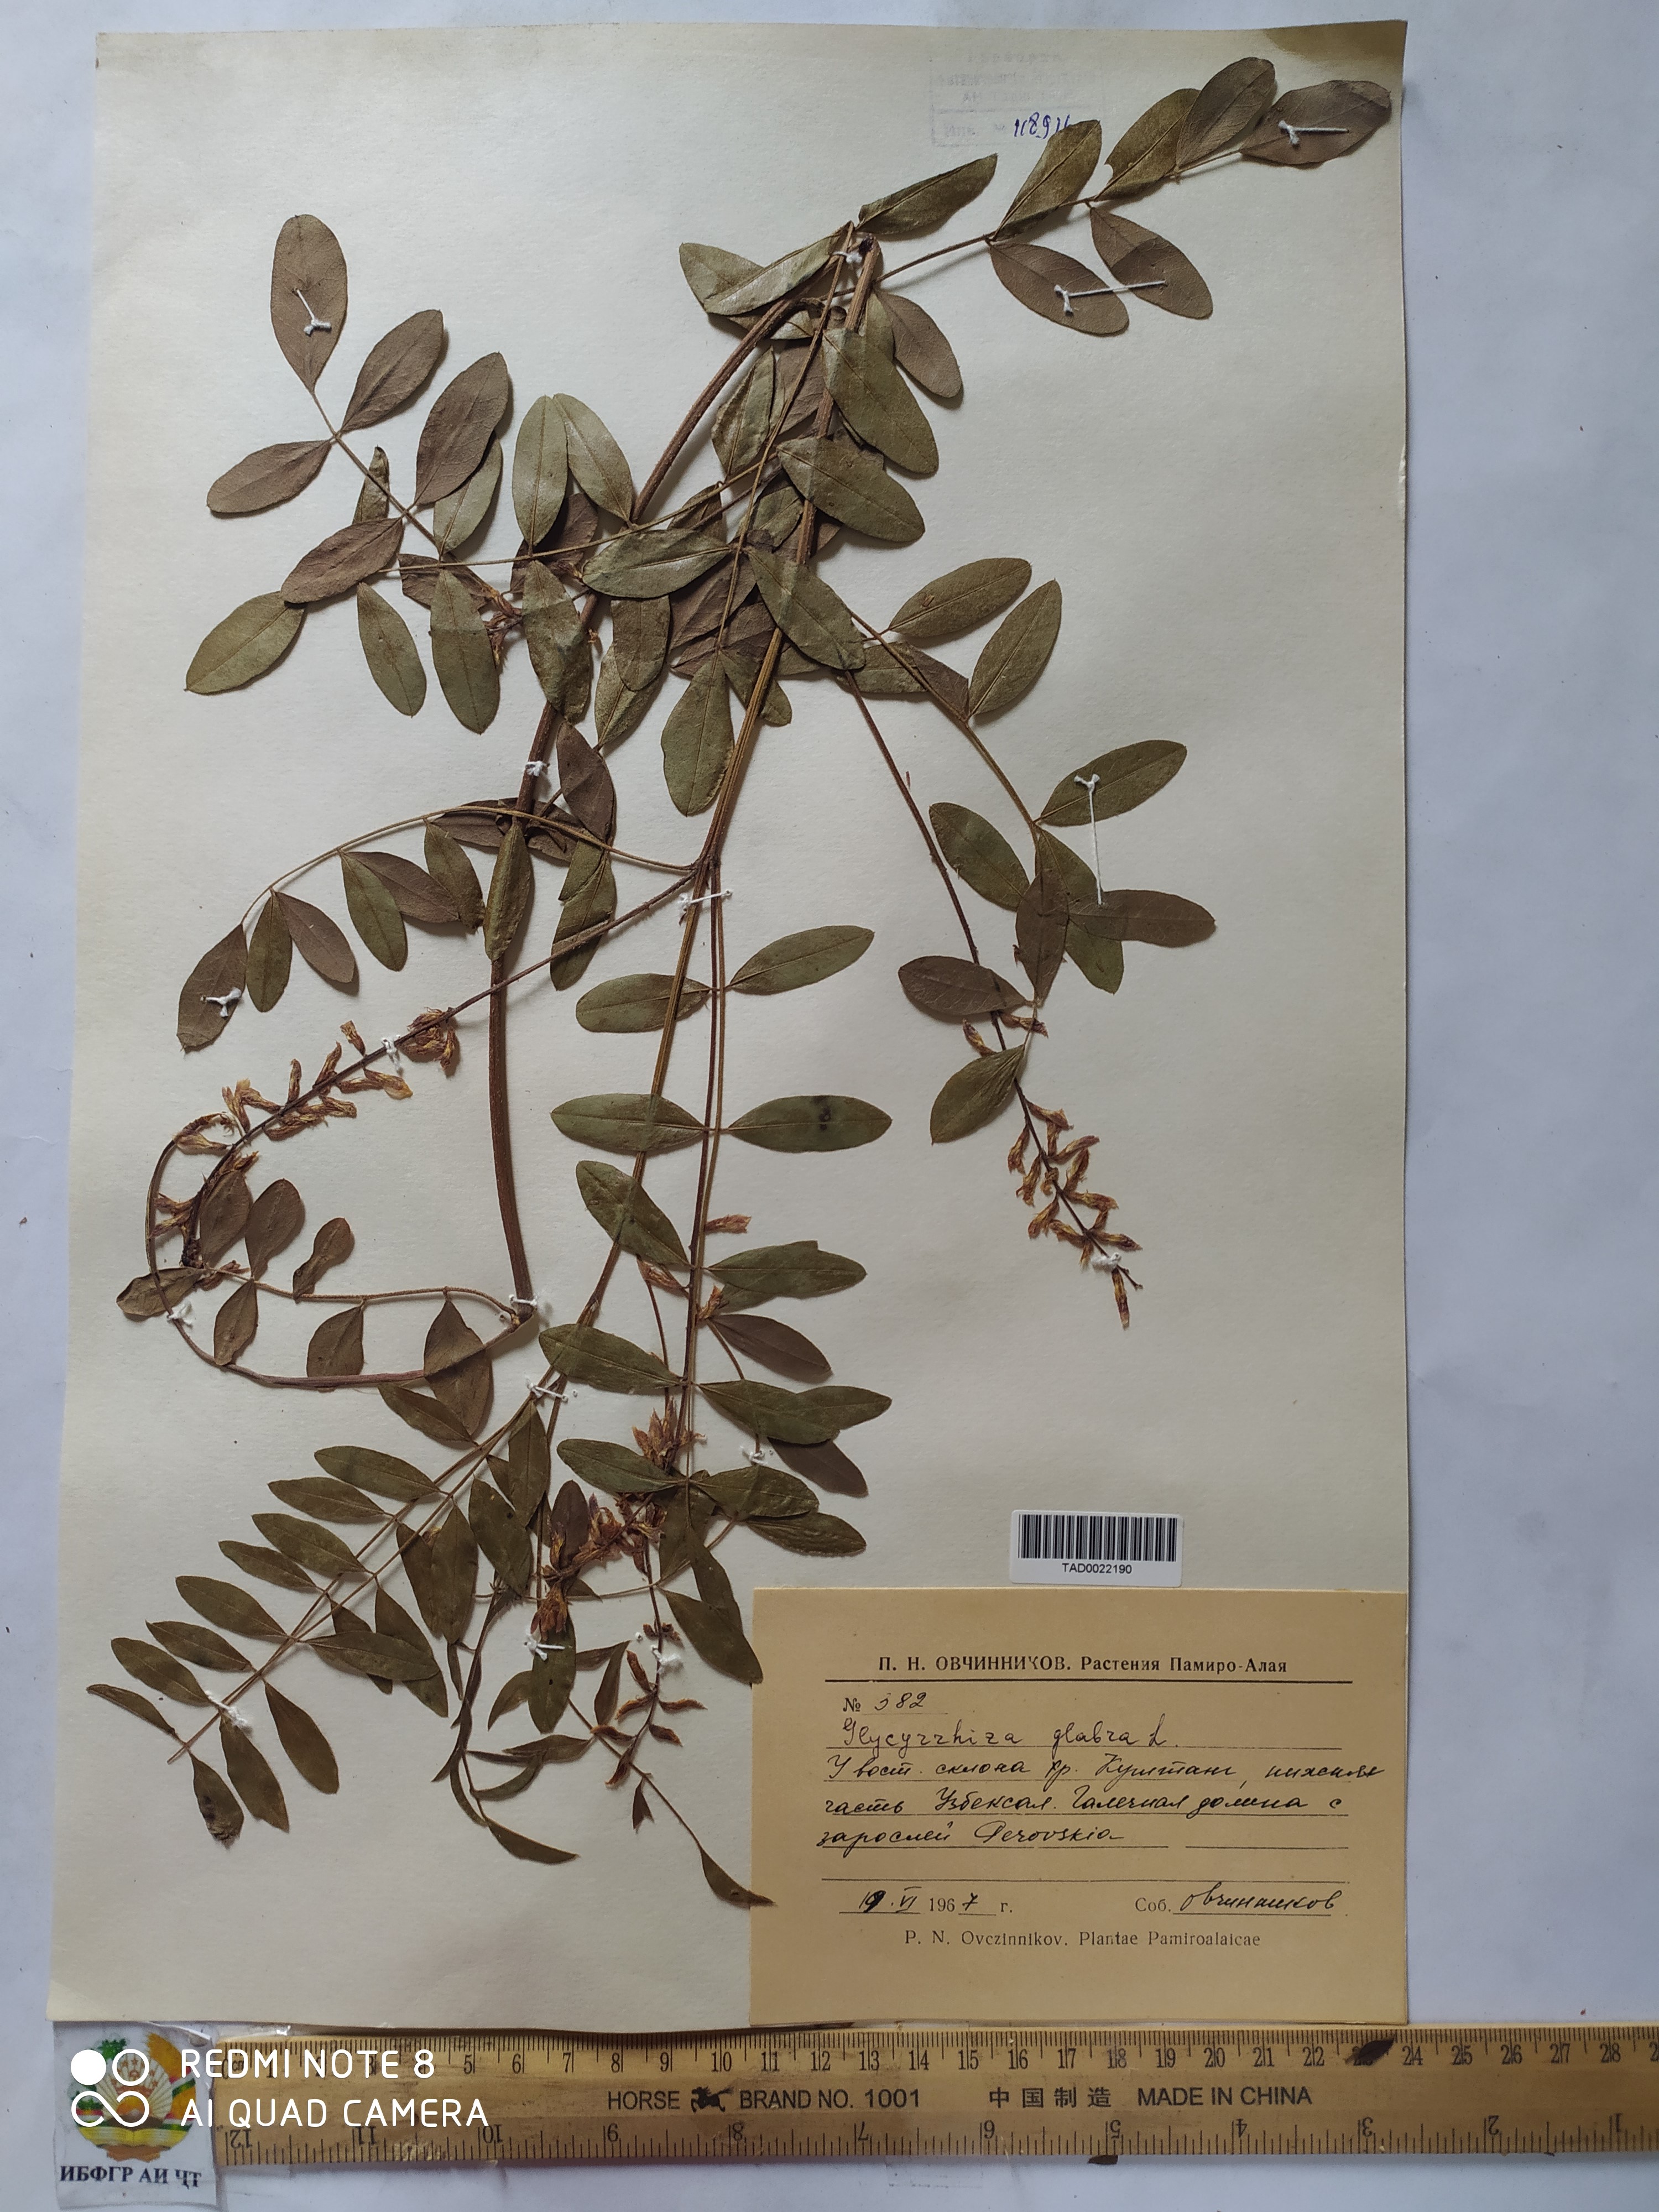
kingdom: Plantae
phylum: Tracheophyta
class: Magnoliopsida
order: Fabales
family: Fabaceae
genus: Glycyrrhiza
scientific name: Glycyrrhiza glabra
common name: Liquorice
